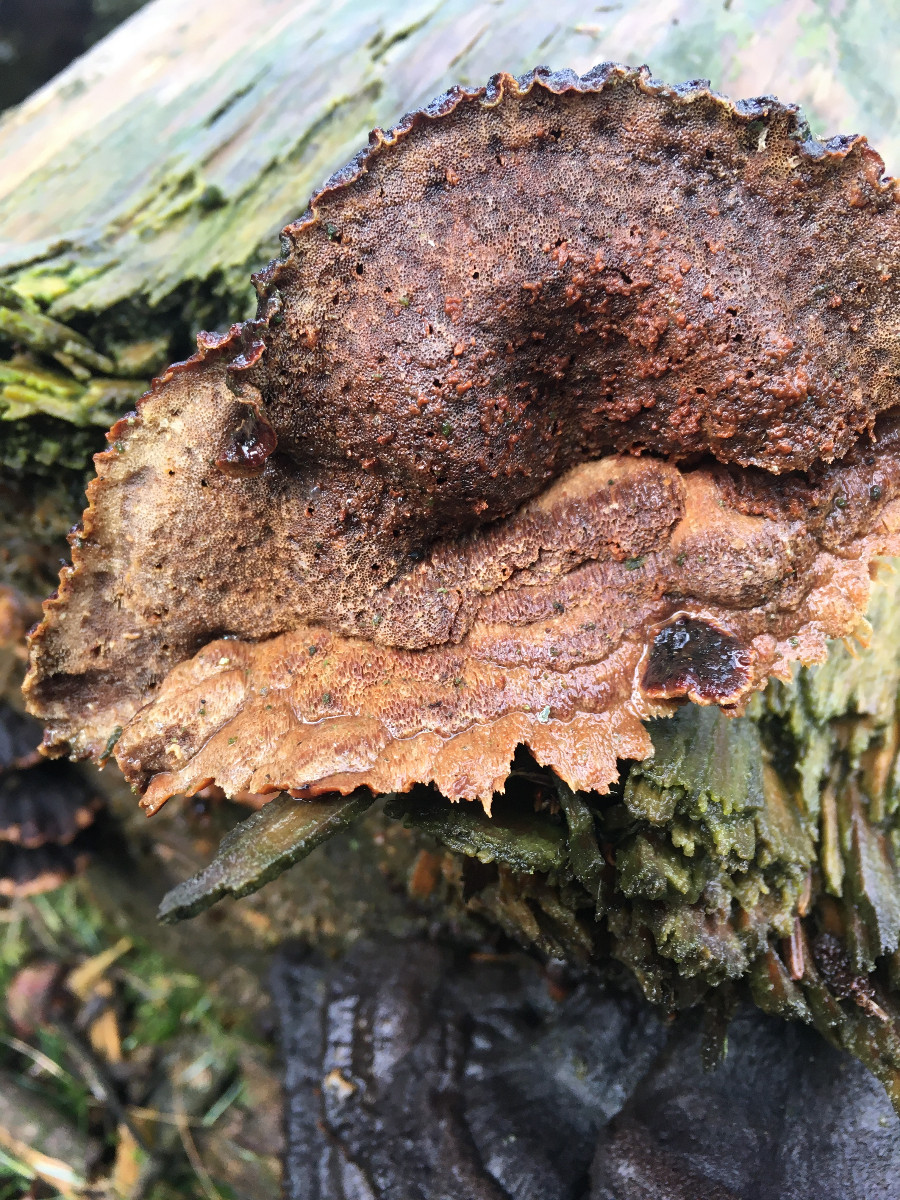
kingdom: Fungi
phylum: Basidiomycota
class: Agaricomycetes
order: Polyporales
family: Ischnodermataceae
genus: Ischnoderma
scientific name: Ischnoderma benzoinum
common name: gran-tjæreporesvamp
